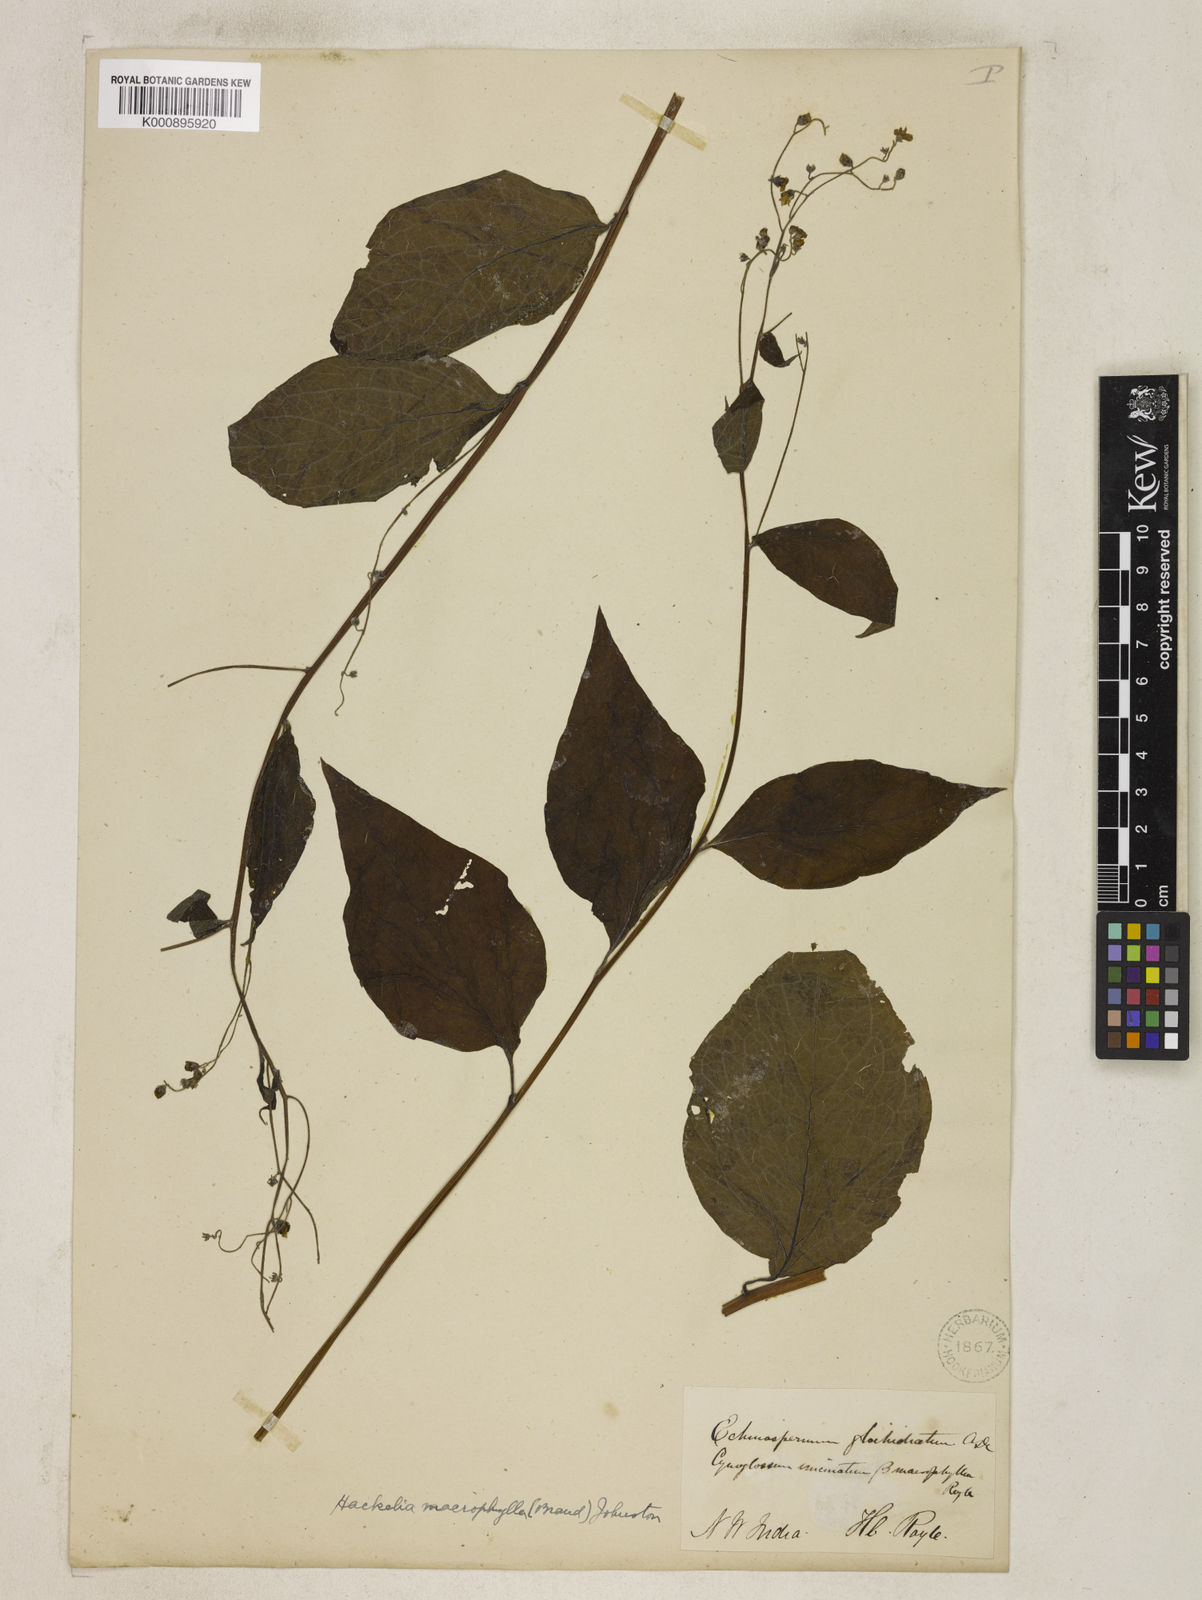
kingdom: Plantae
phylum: Tracheophyta
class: Magnoliopsida
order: Boraginales
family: Boraginaceae
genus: Hackelia
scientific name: Hackelia macrophylla
